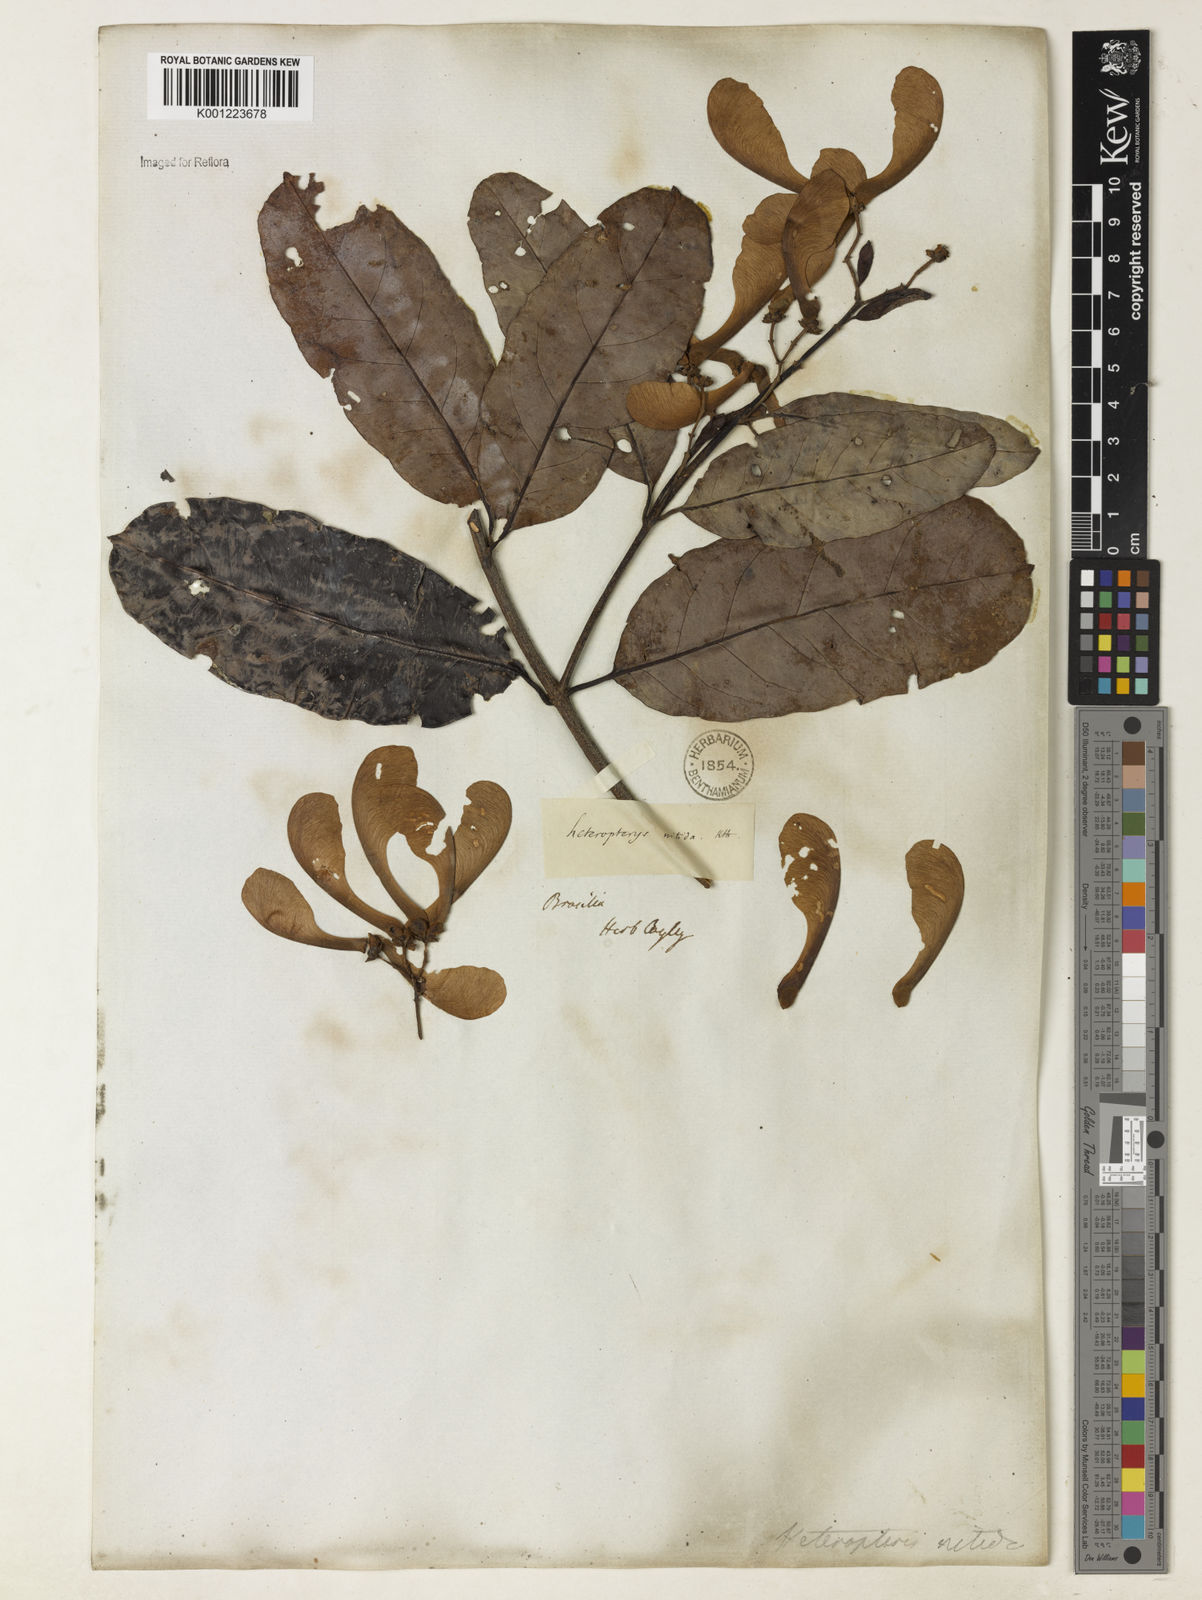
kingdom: Plantae
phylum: Tracheophyta
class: Magnoliopsida
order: Malpighiales
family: Malpighiaceae
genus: Heteropterys
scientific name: Heteropterys nitida
